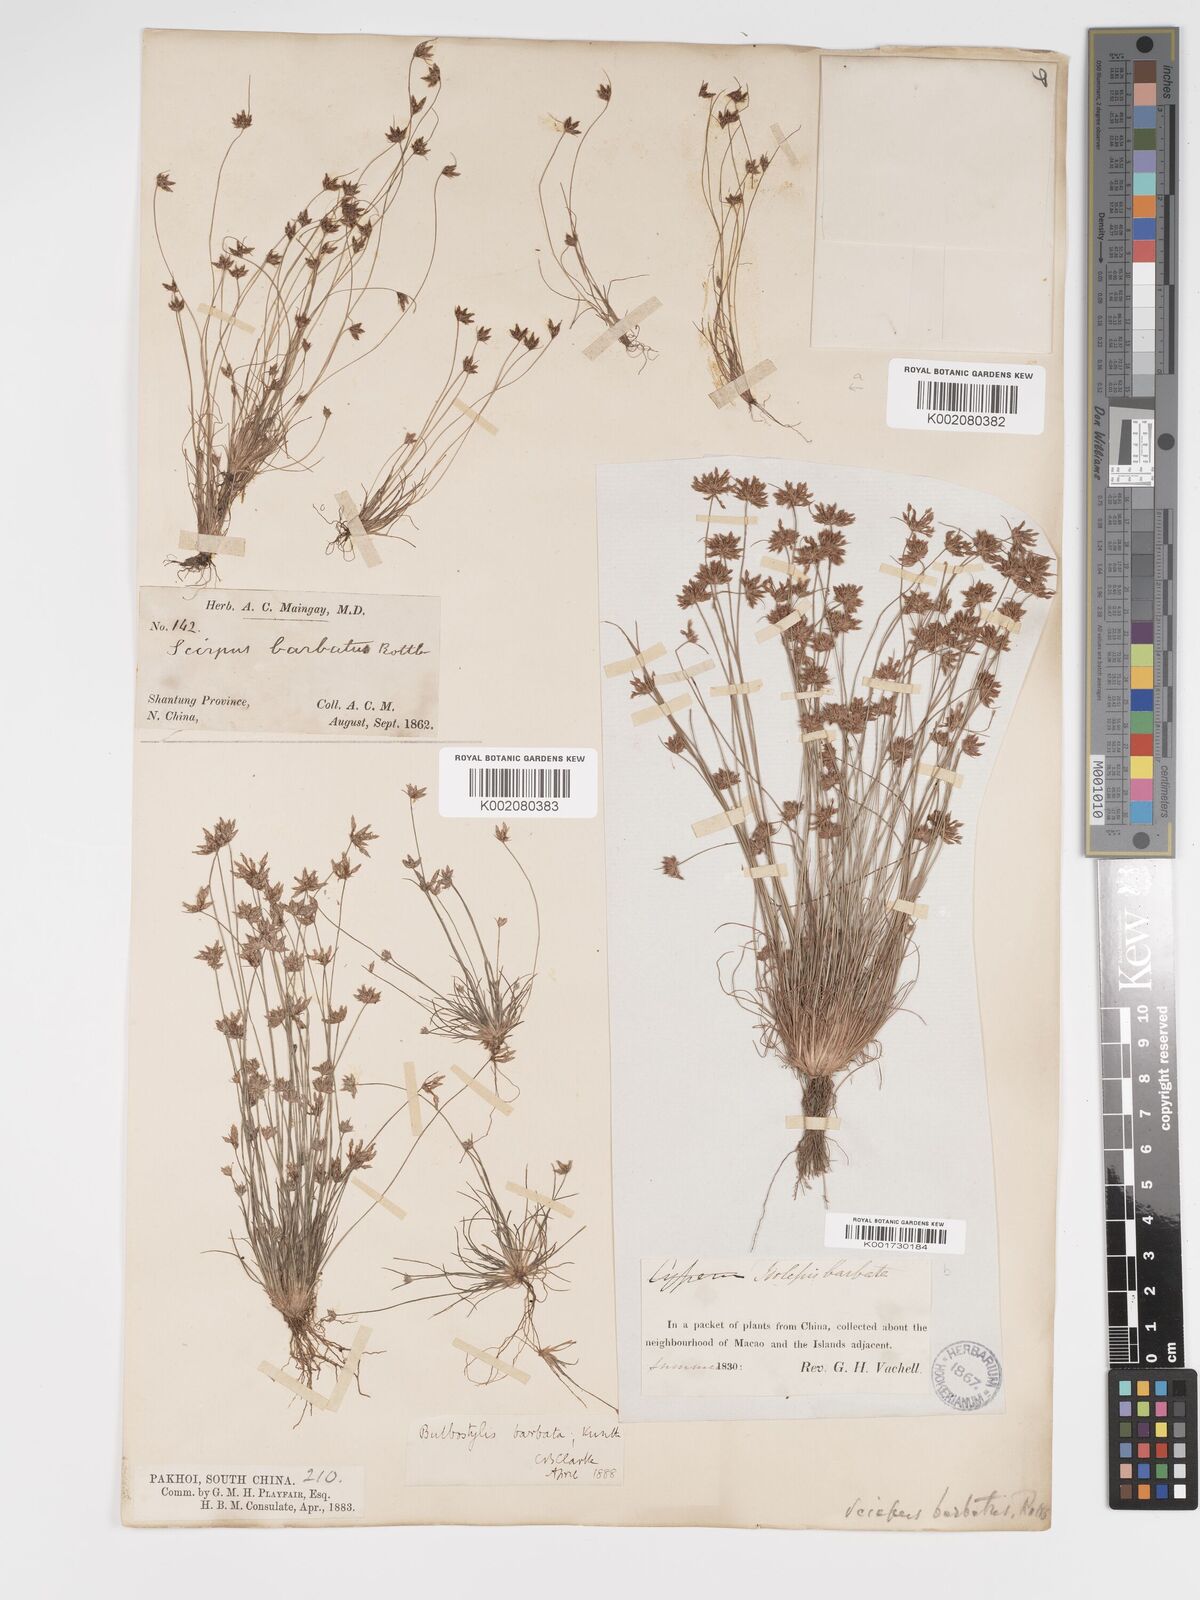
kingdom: Plantae
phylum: Tracheophyta
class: Liliopsida
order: Poales
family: Cyperaceae
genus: Bulbostylis
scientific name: Bulbostylis barbata
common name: Watergrass
